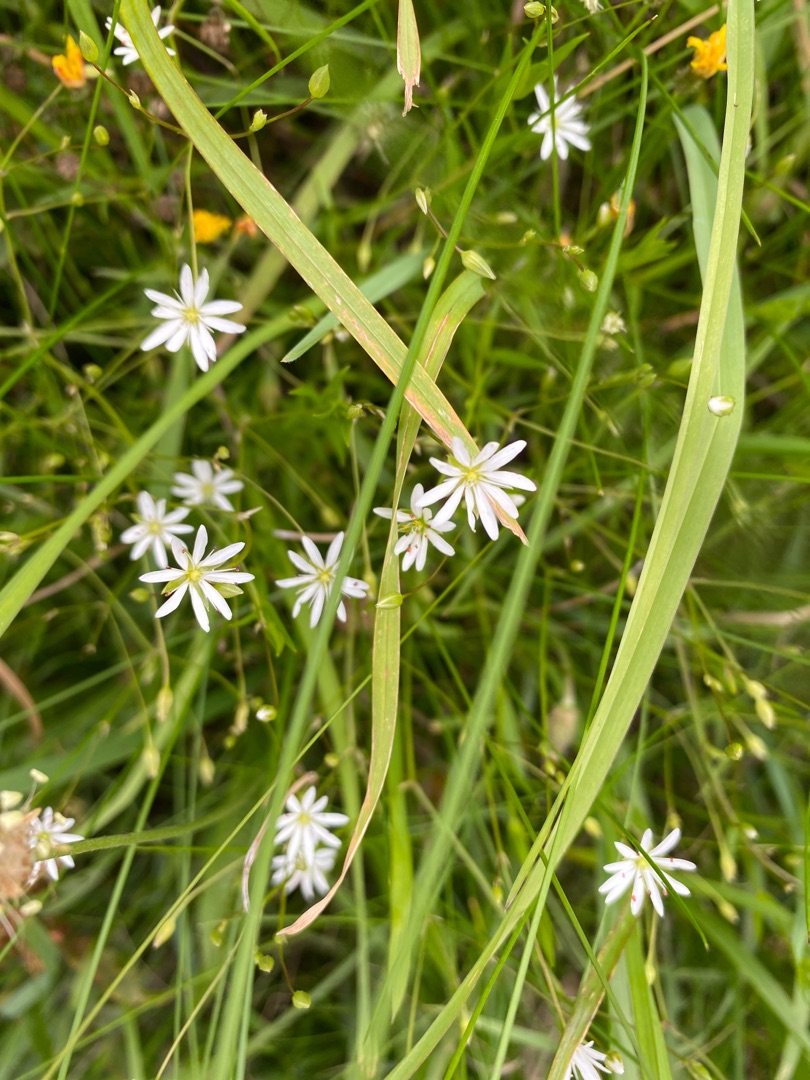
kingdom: Plantae
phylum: Tracheophyta
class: Magnoliopsida
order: Caryophyllales
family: Caryophyllaceae
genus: Stellaria
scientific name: Stellaria graminea
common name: Græsbladet fladstjerne
